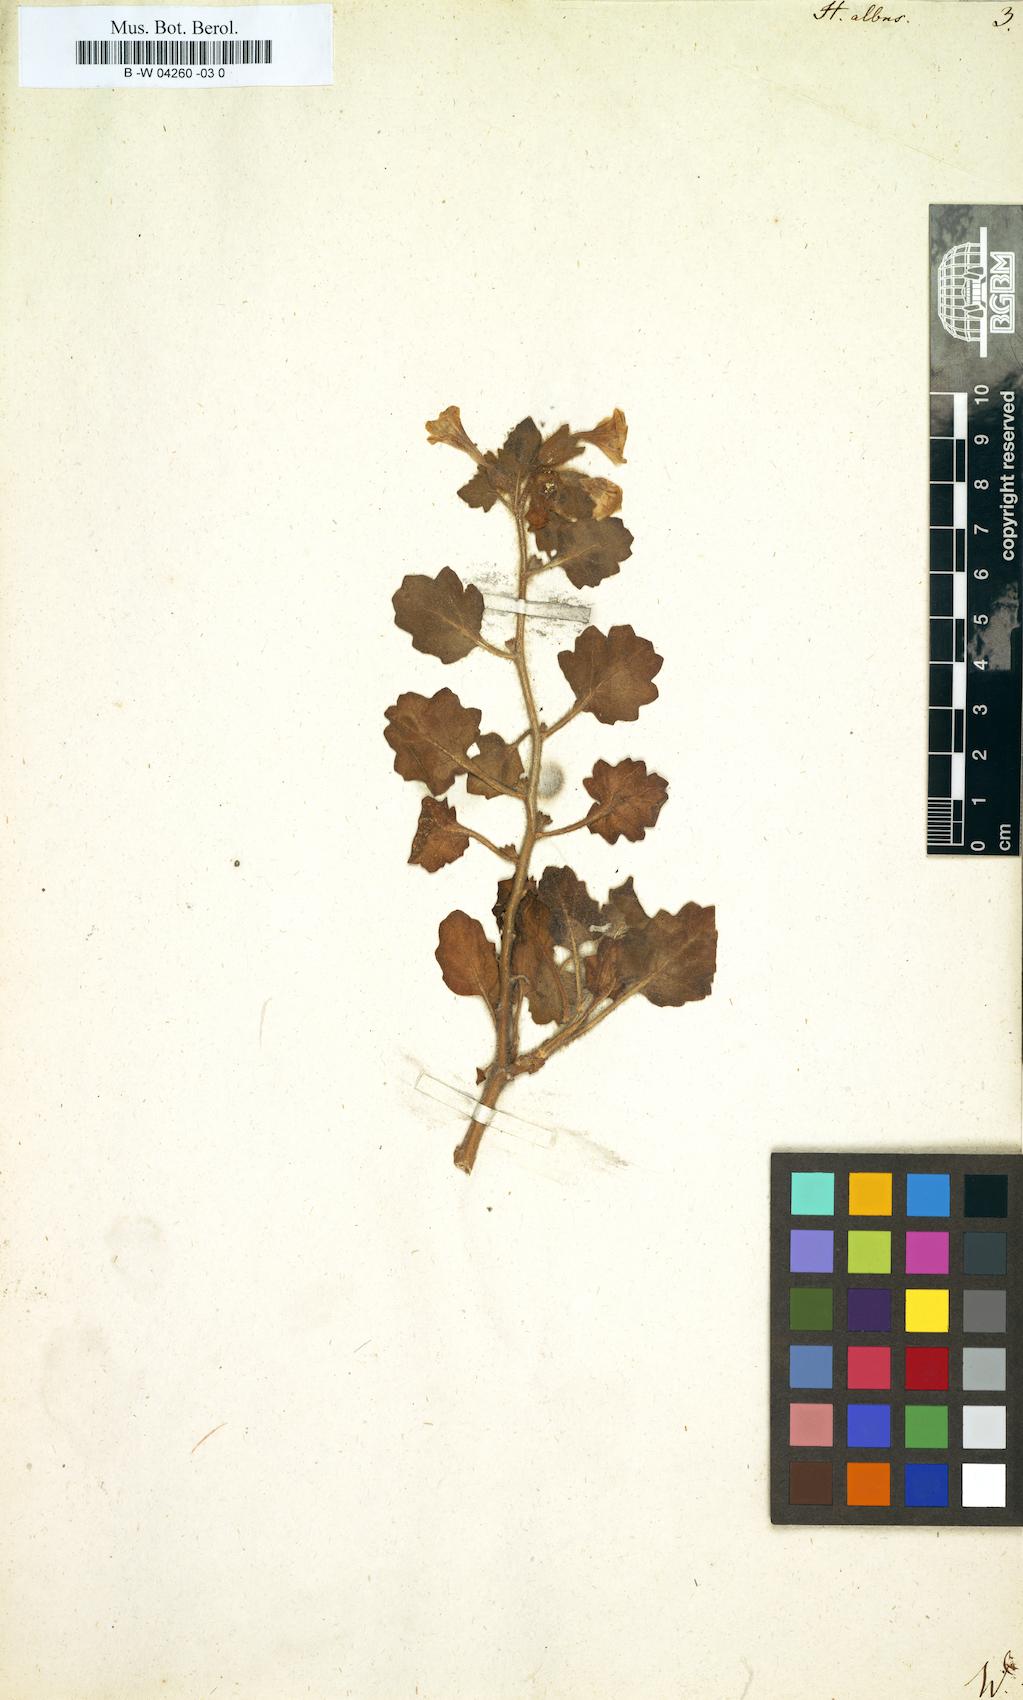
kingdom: Plantae
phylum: Tracheophyta
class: Magnoliopsida
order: Solanales
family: Solanaceae
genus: Hyoscyamus
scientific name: Hyoscyamus albus
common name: White henbane
